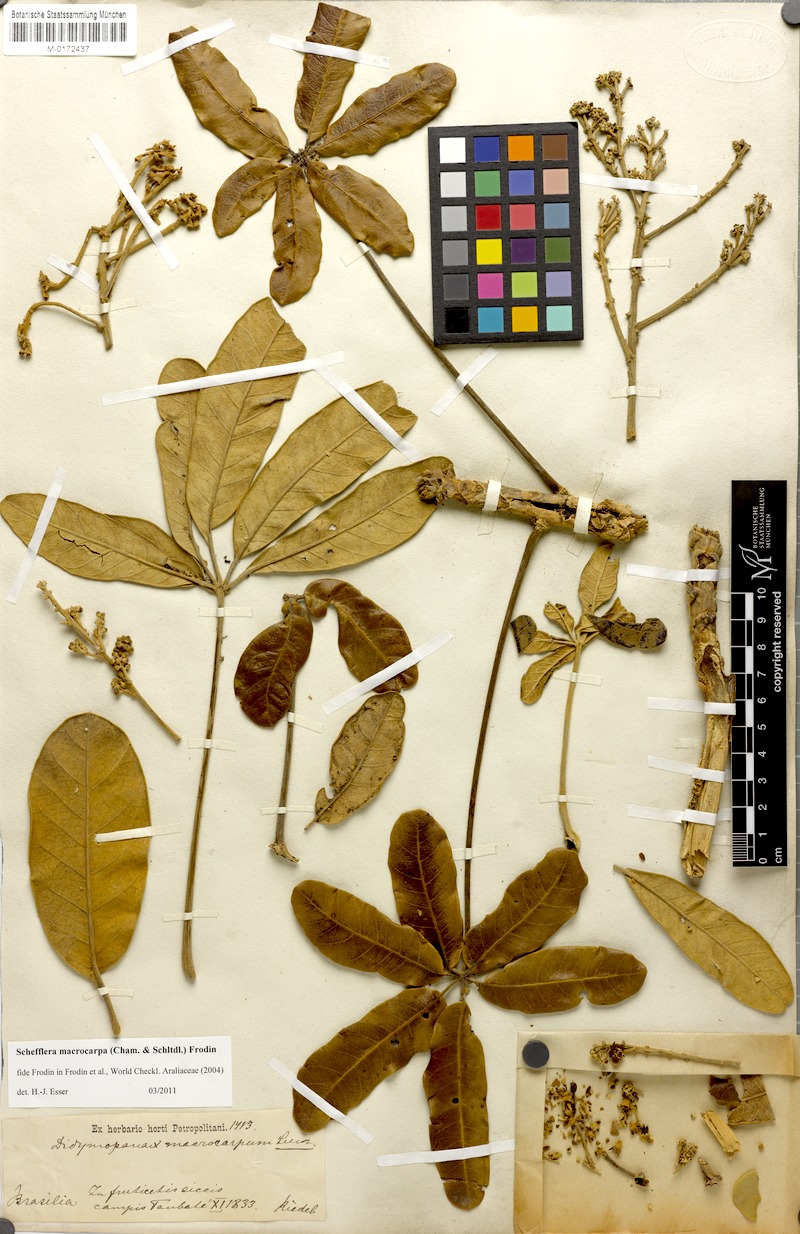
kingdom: Plantae
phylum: Tracheophyta
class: Magnoliopsida
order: Apiales
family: Araliaceae
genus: Didymopanax
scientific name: Didymopanax macrocarpus
